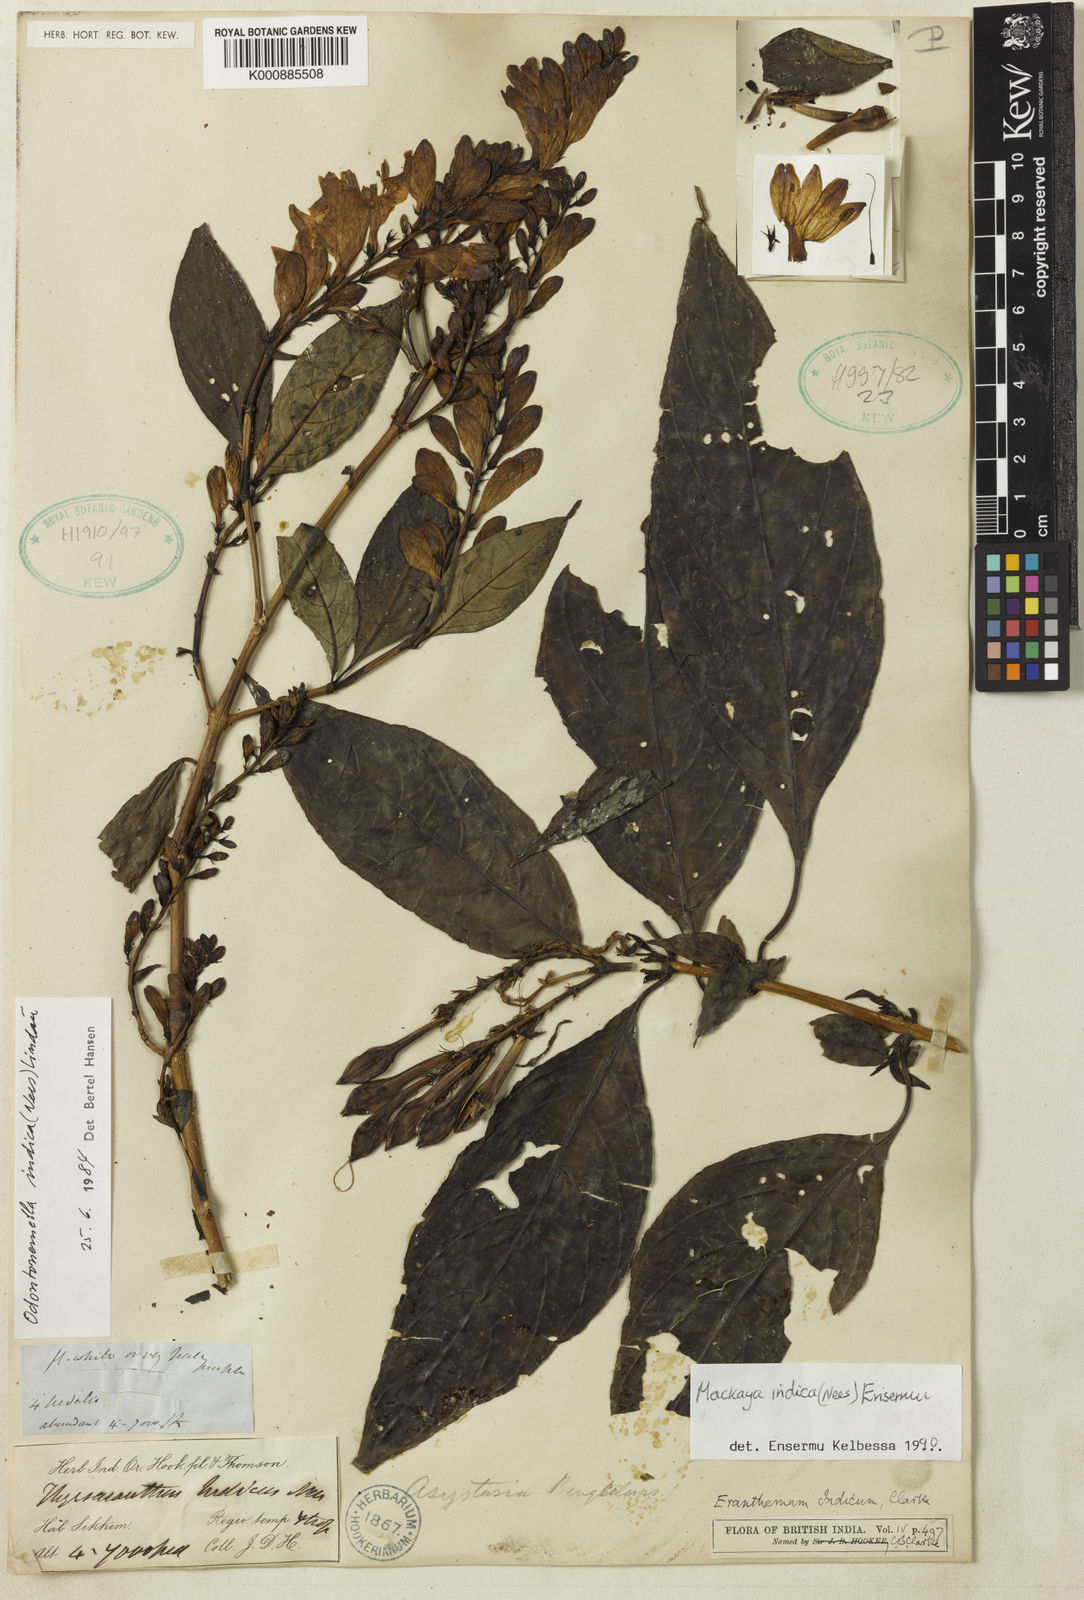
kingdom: Plantae
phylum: Tracheophyta
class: Magnoliopsida
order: Lamiales
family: Acanthaceae
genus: Mackaya
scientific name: Mackaya indica
